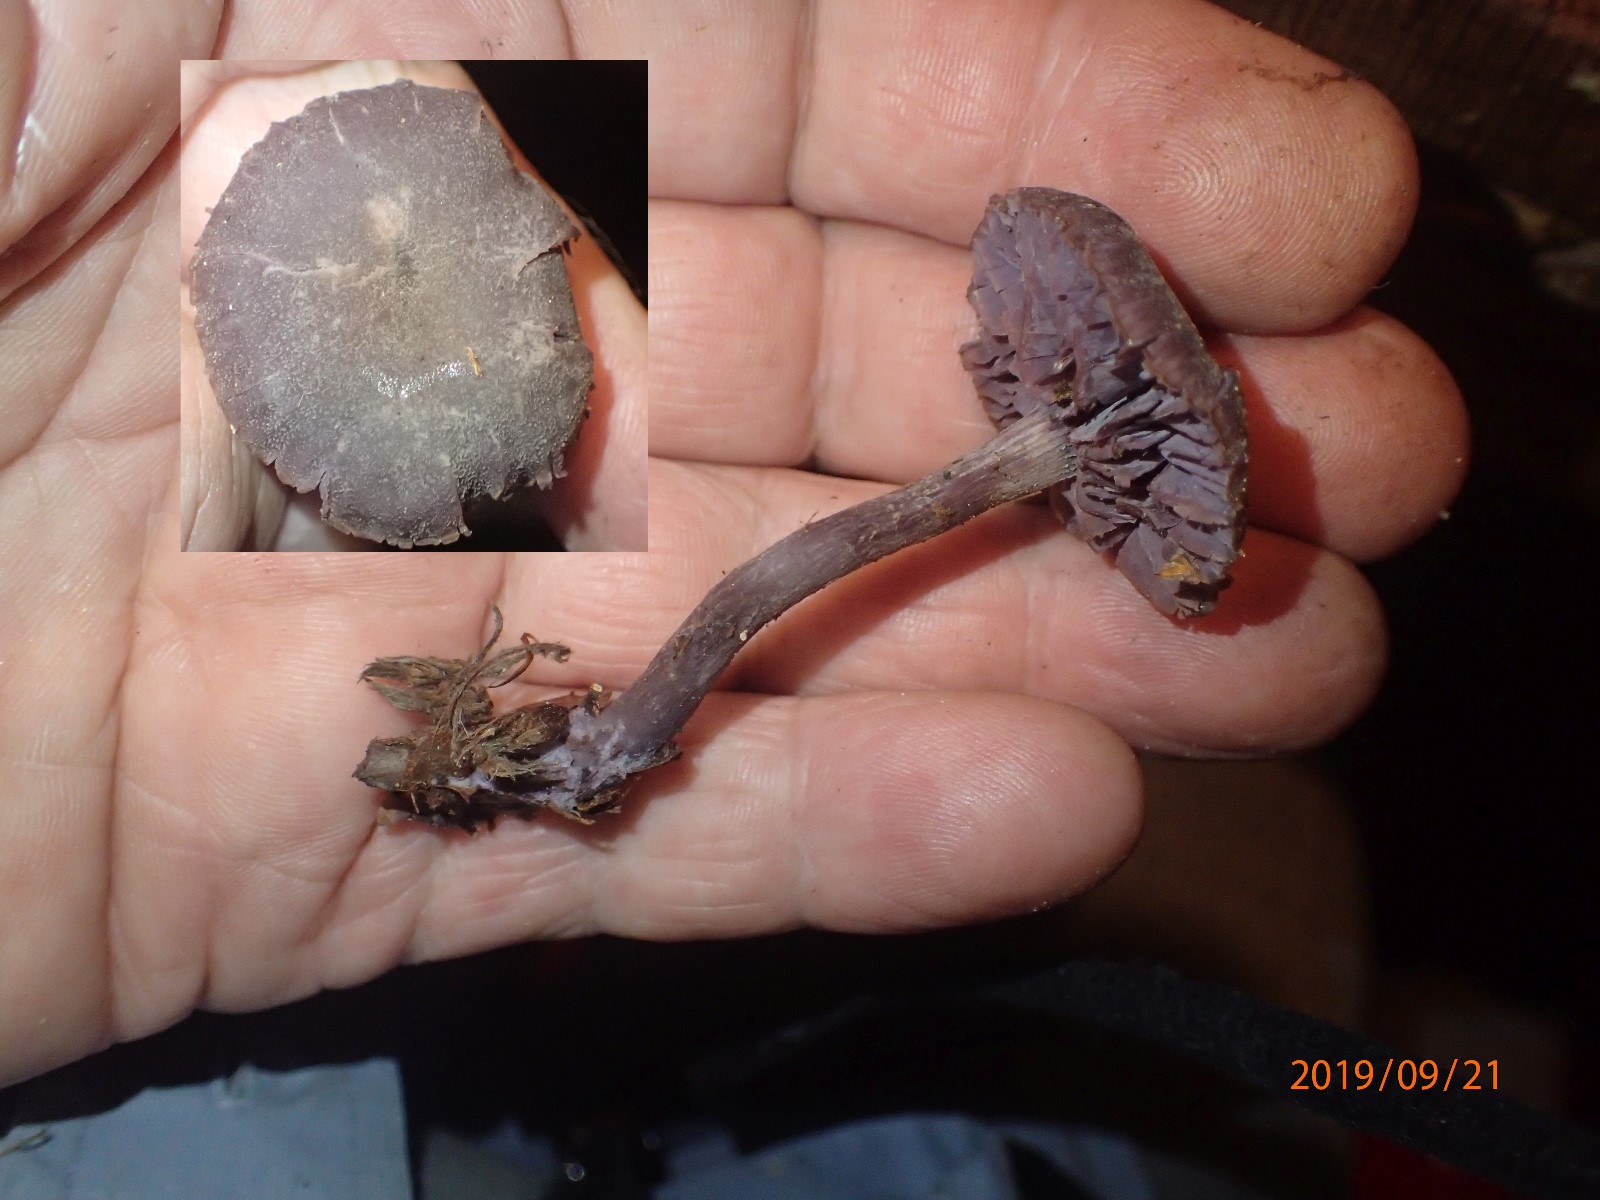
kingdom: Fungi
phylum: Basidiomycota
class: Agaricomycetes
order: Agaricales
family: Hydnangiaceae
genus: Laccaria
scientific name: Laccaria amethystina
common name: violet ametysthat
